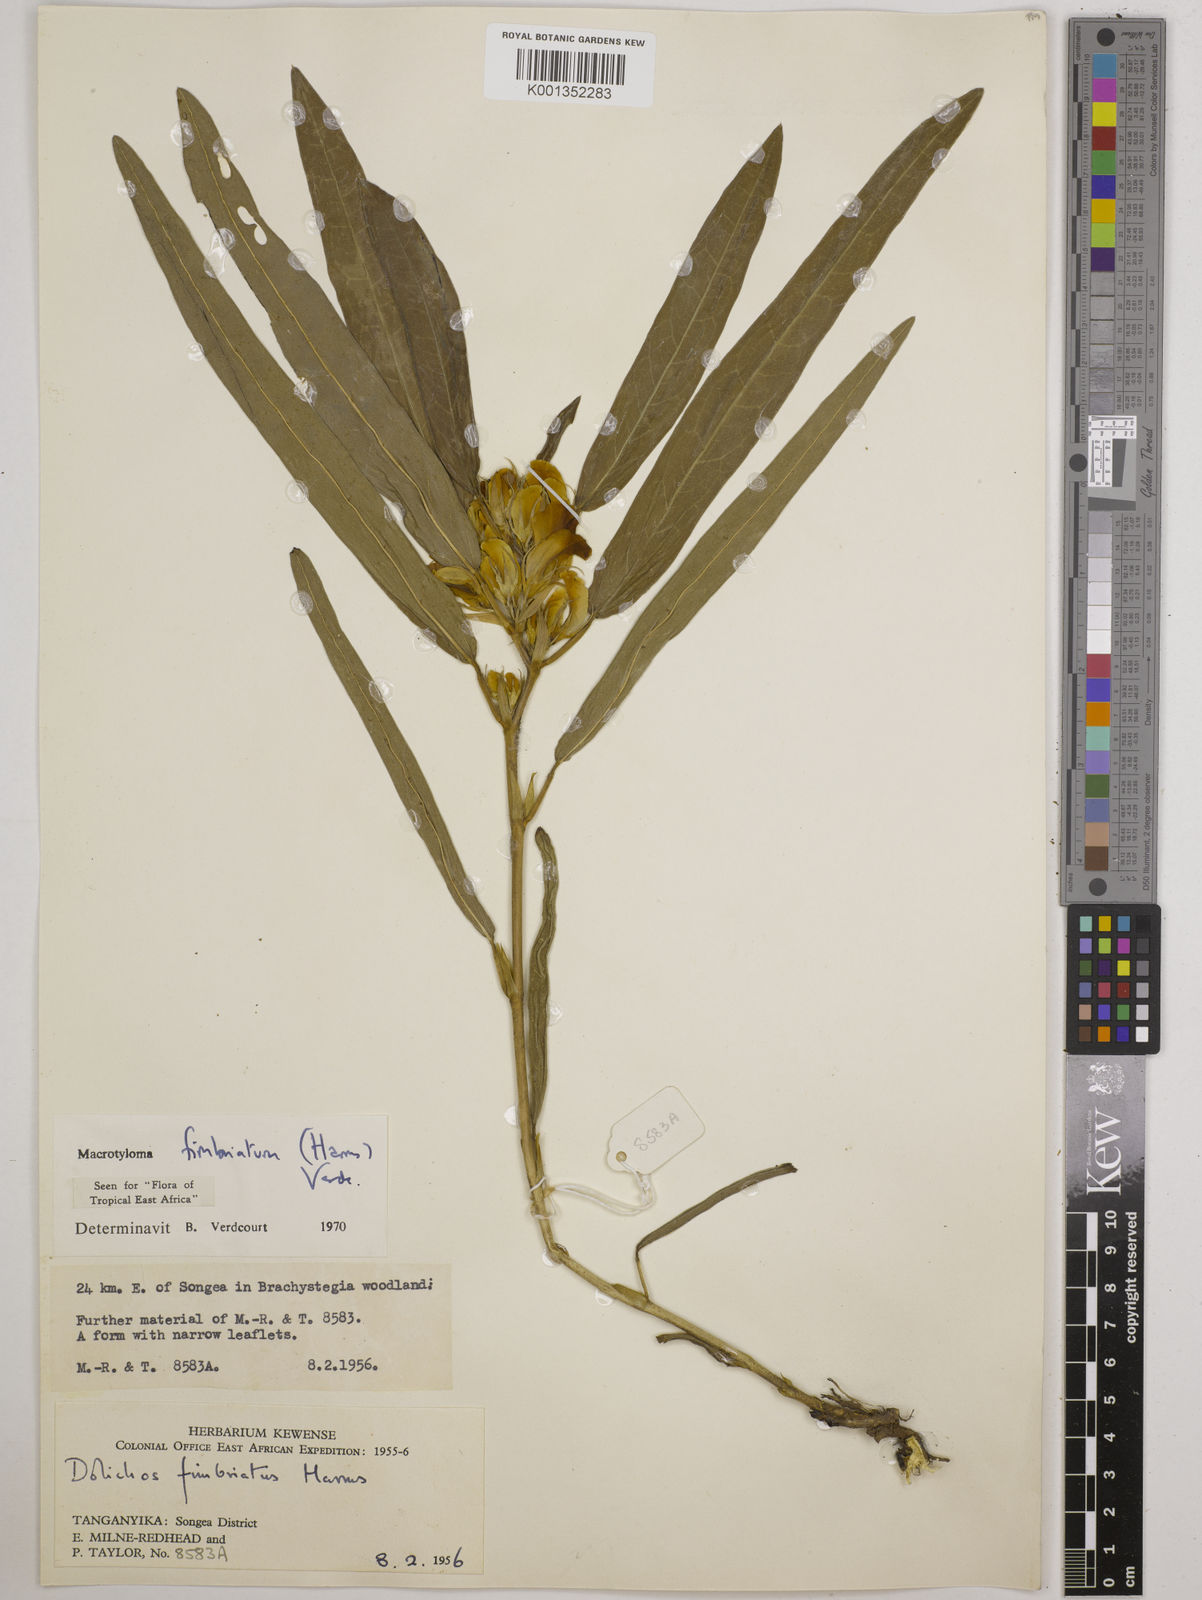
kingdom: Plantae
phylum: Tracheophyta
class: Magnoliopsida
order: Fabales
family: Fabaceae
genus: Macrotyloma
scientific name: Macrotyloma fimbriatum
